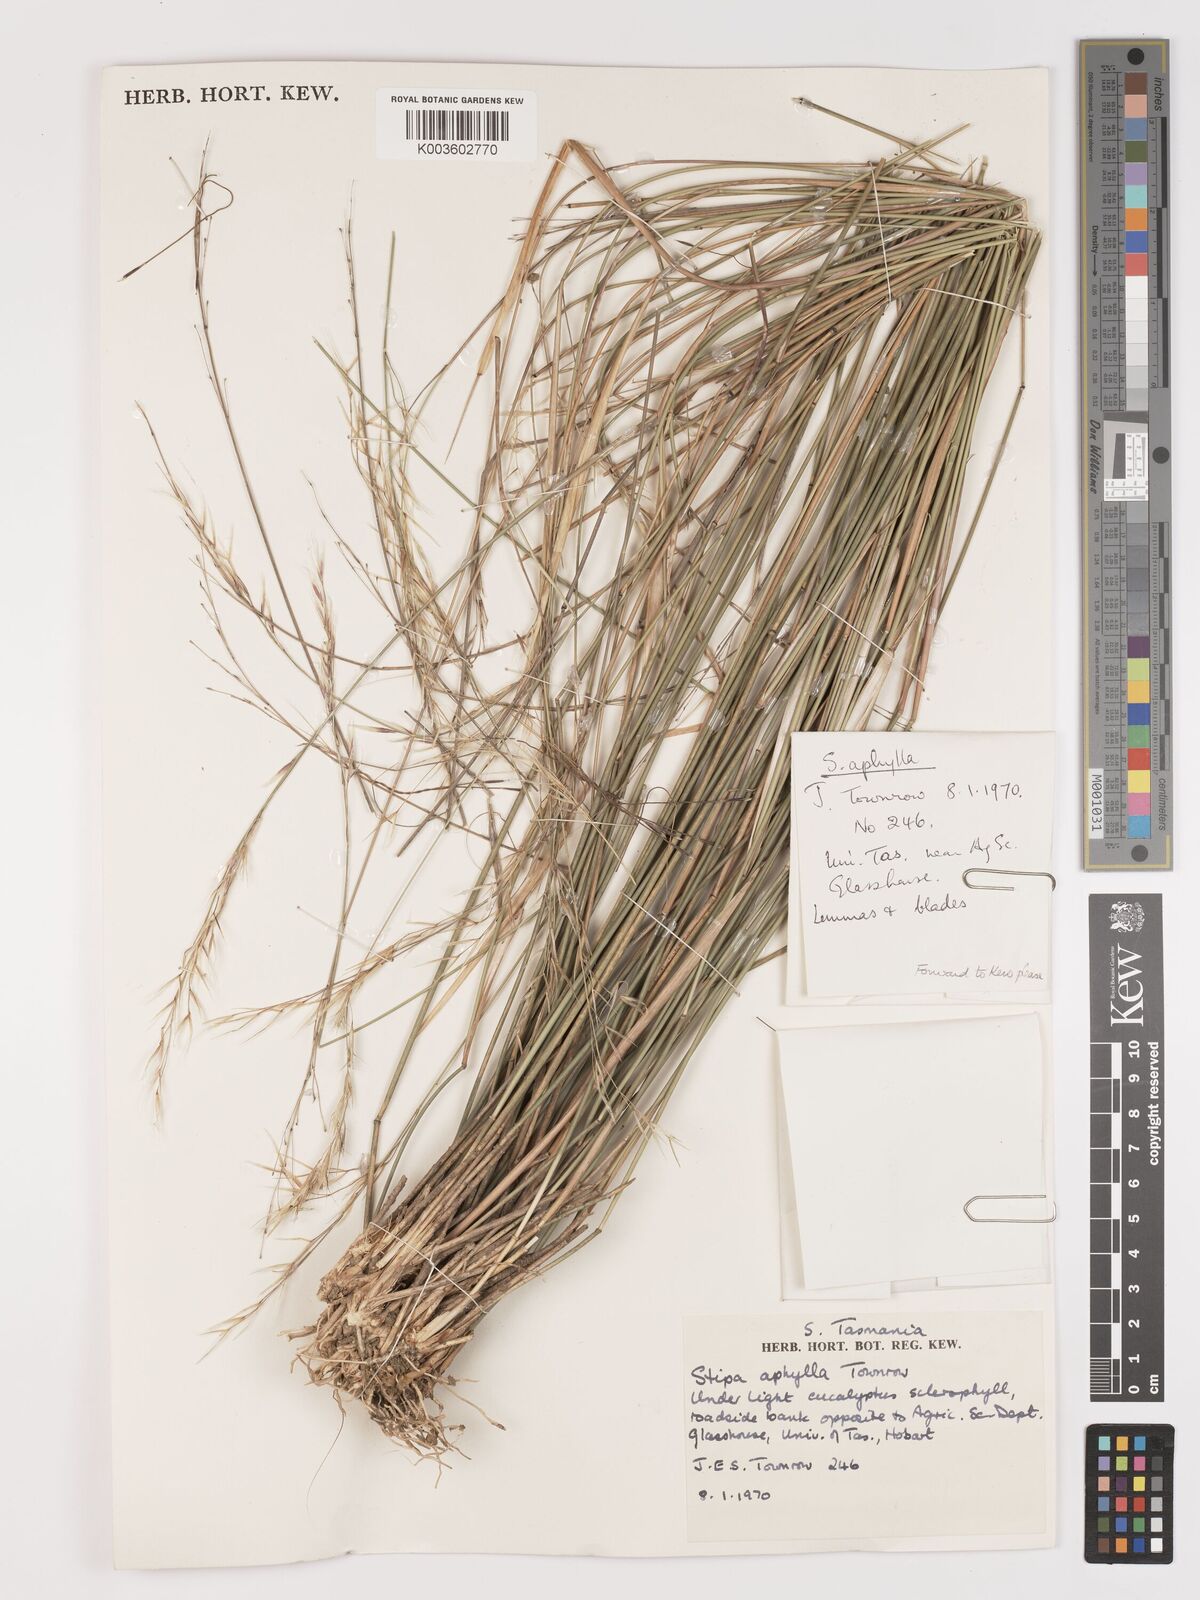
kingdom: Plantae
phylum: Tracheophyta
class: Liliopsida
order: Poales
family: Poaceae
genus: Austrostipa
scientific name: Austrostipa aphylla
